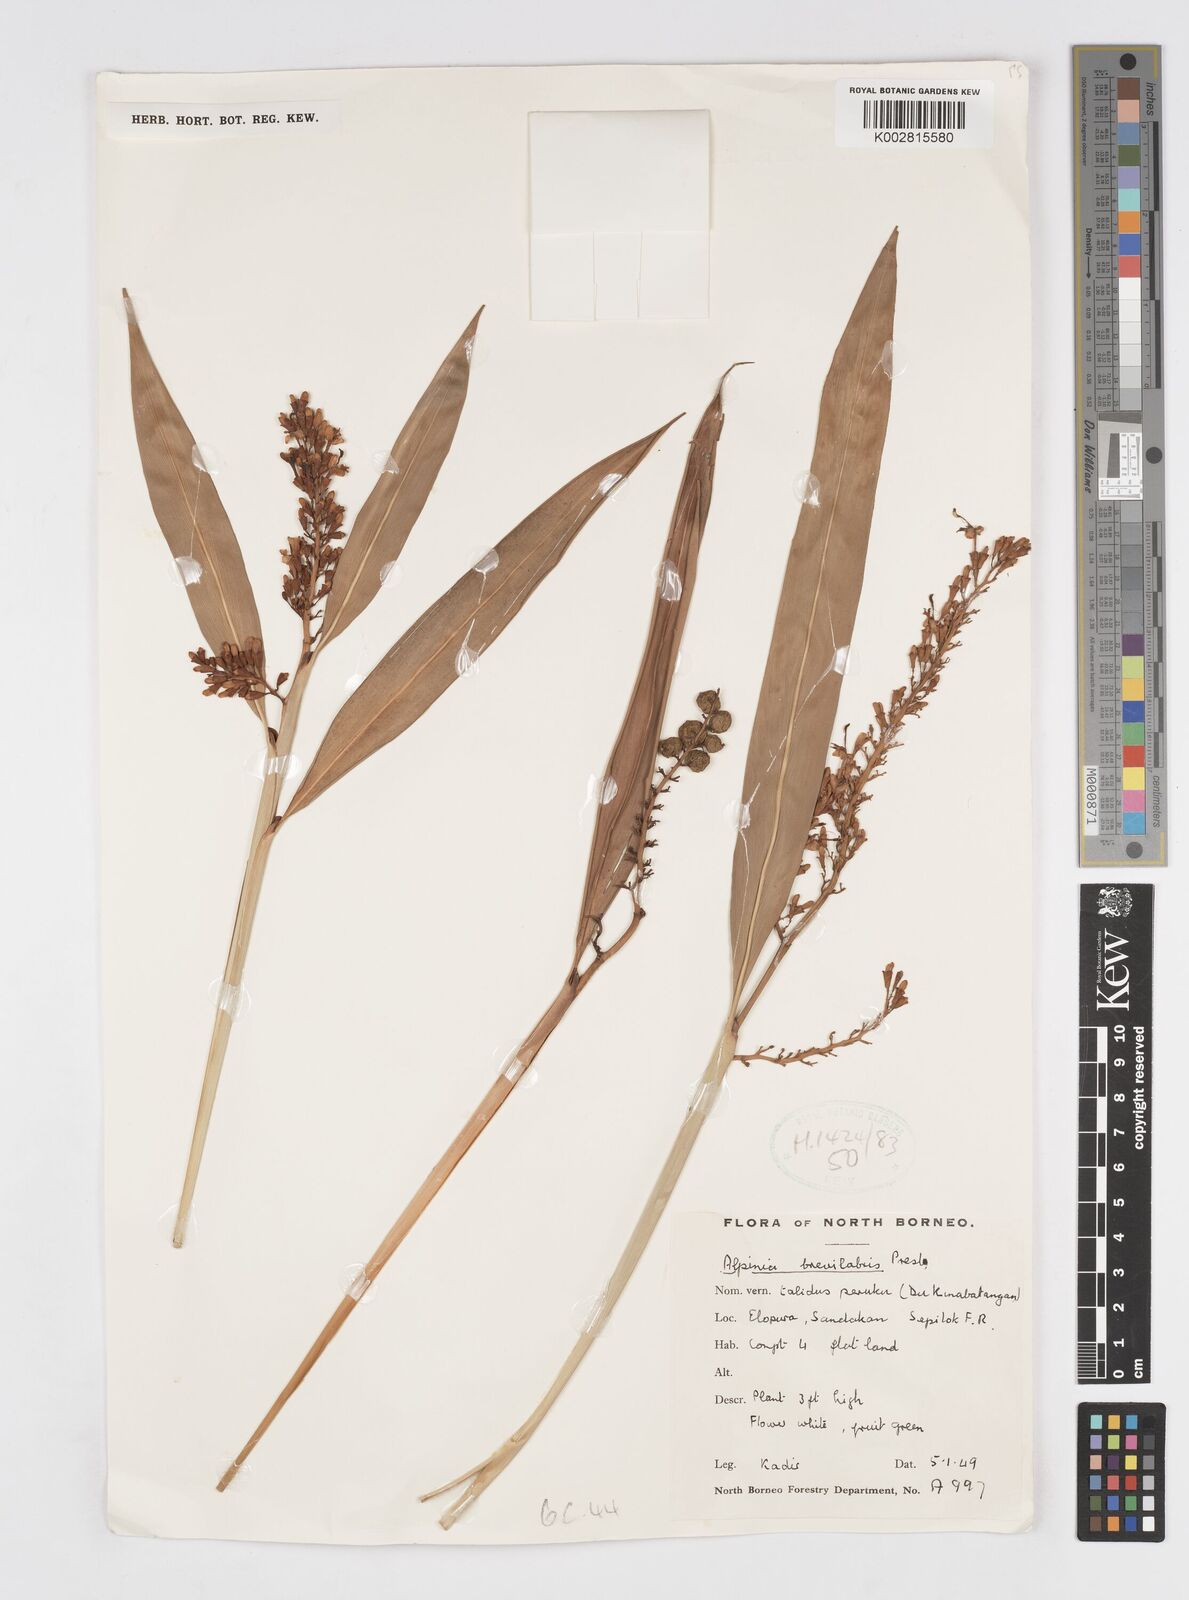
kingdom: Plantae
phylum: Tracheophyta
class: Liliopsida
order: Zingiberales
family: Zingiberaceae
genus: Alpinia
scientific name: Alpinia brevilabris
